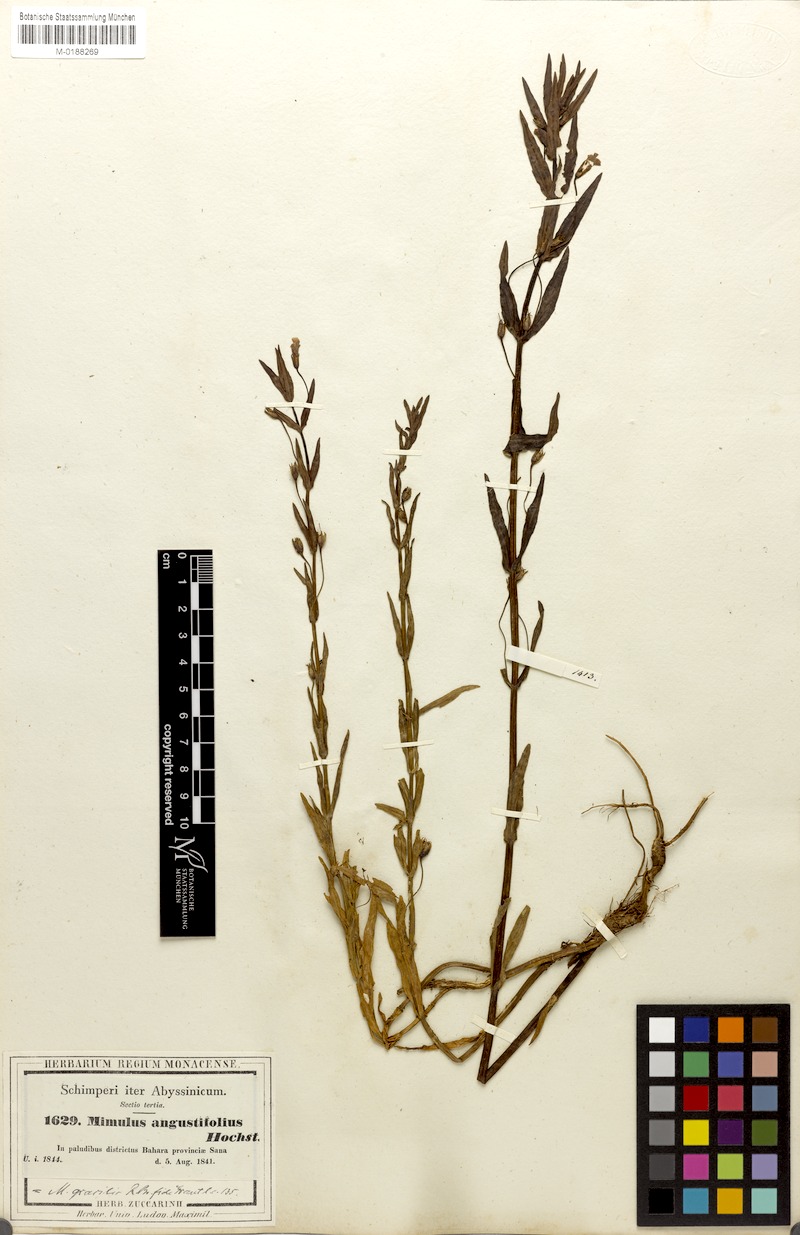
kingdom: Plantae
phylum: Tracheophyta
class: Magnoliopsida
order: Lamiales
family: Phrymaceae
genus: Mimulus
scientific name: Mimulus gracilis
